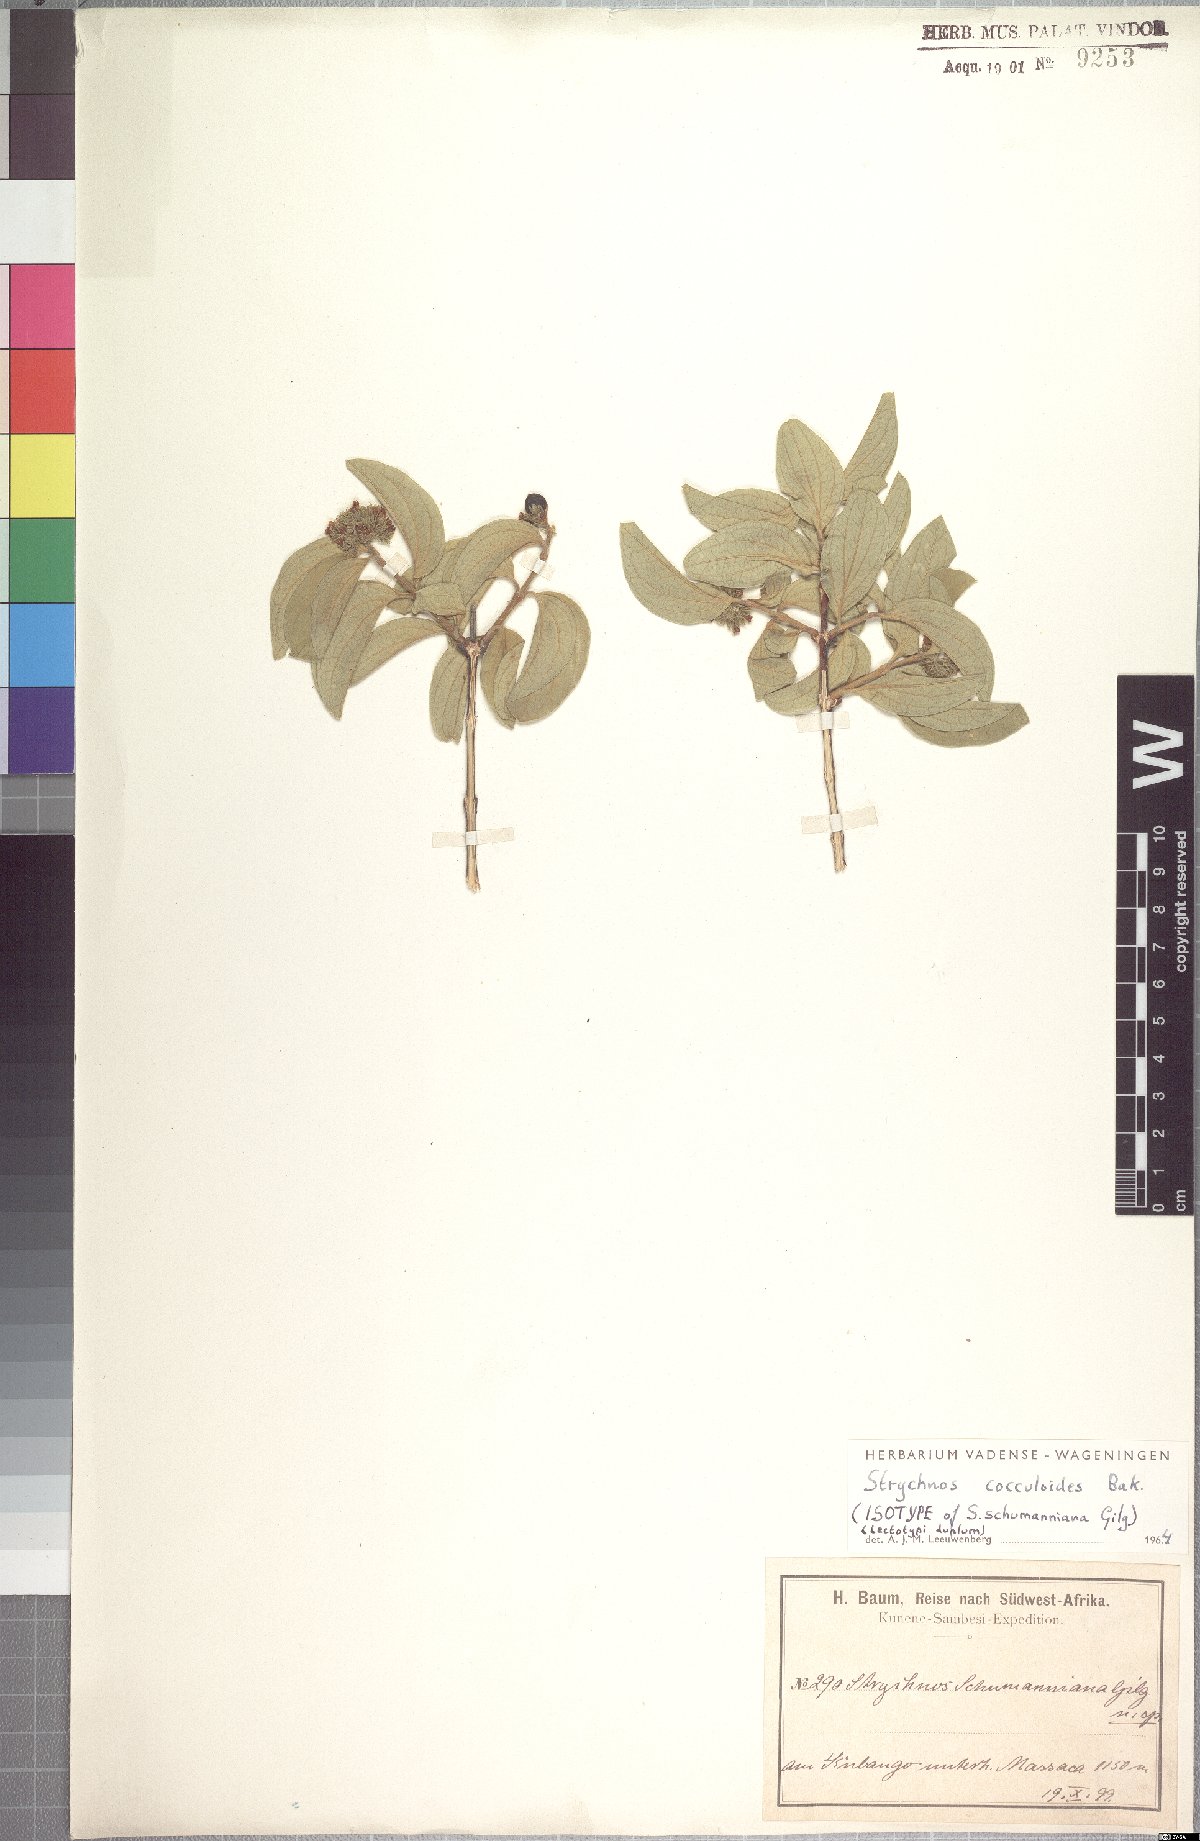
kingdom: Plantae
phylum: Tracheophyta
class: Magnoliopsida
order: Gentianales
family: Loganiaceae
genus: Strychnos
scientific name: Strychnos cocculoides
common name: Corky-bark monkey-orange
